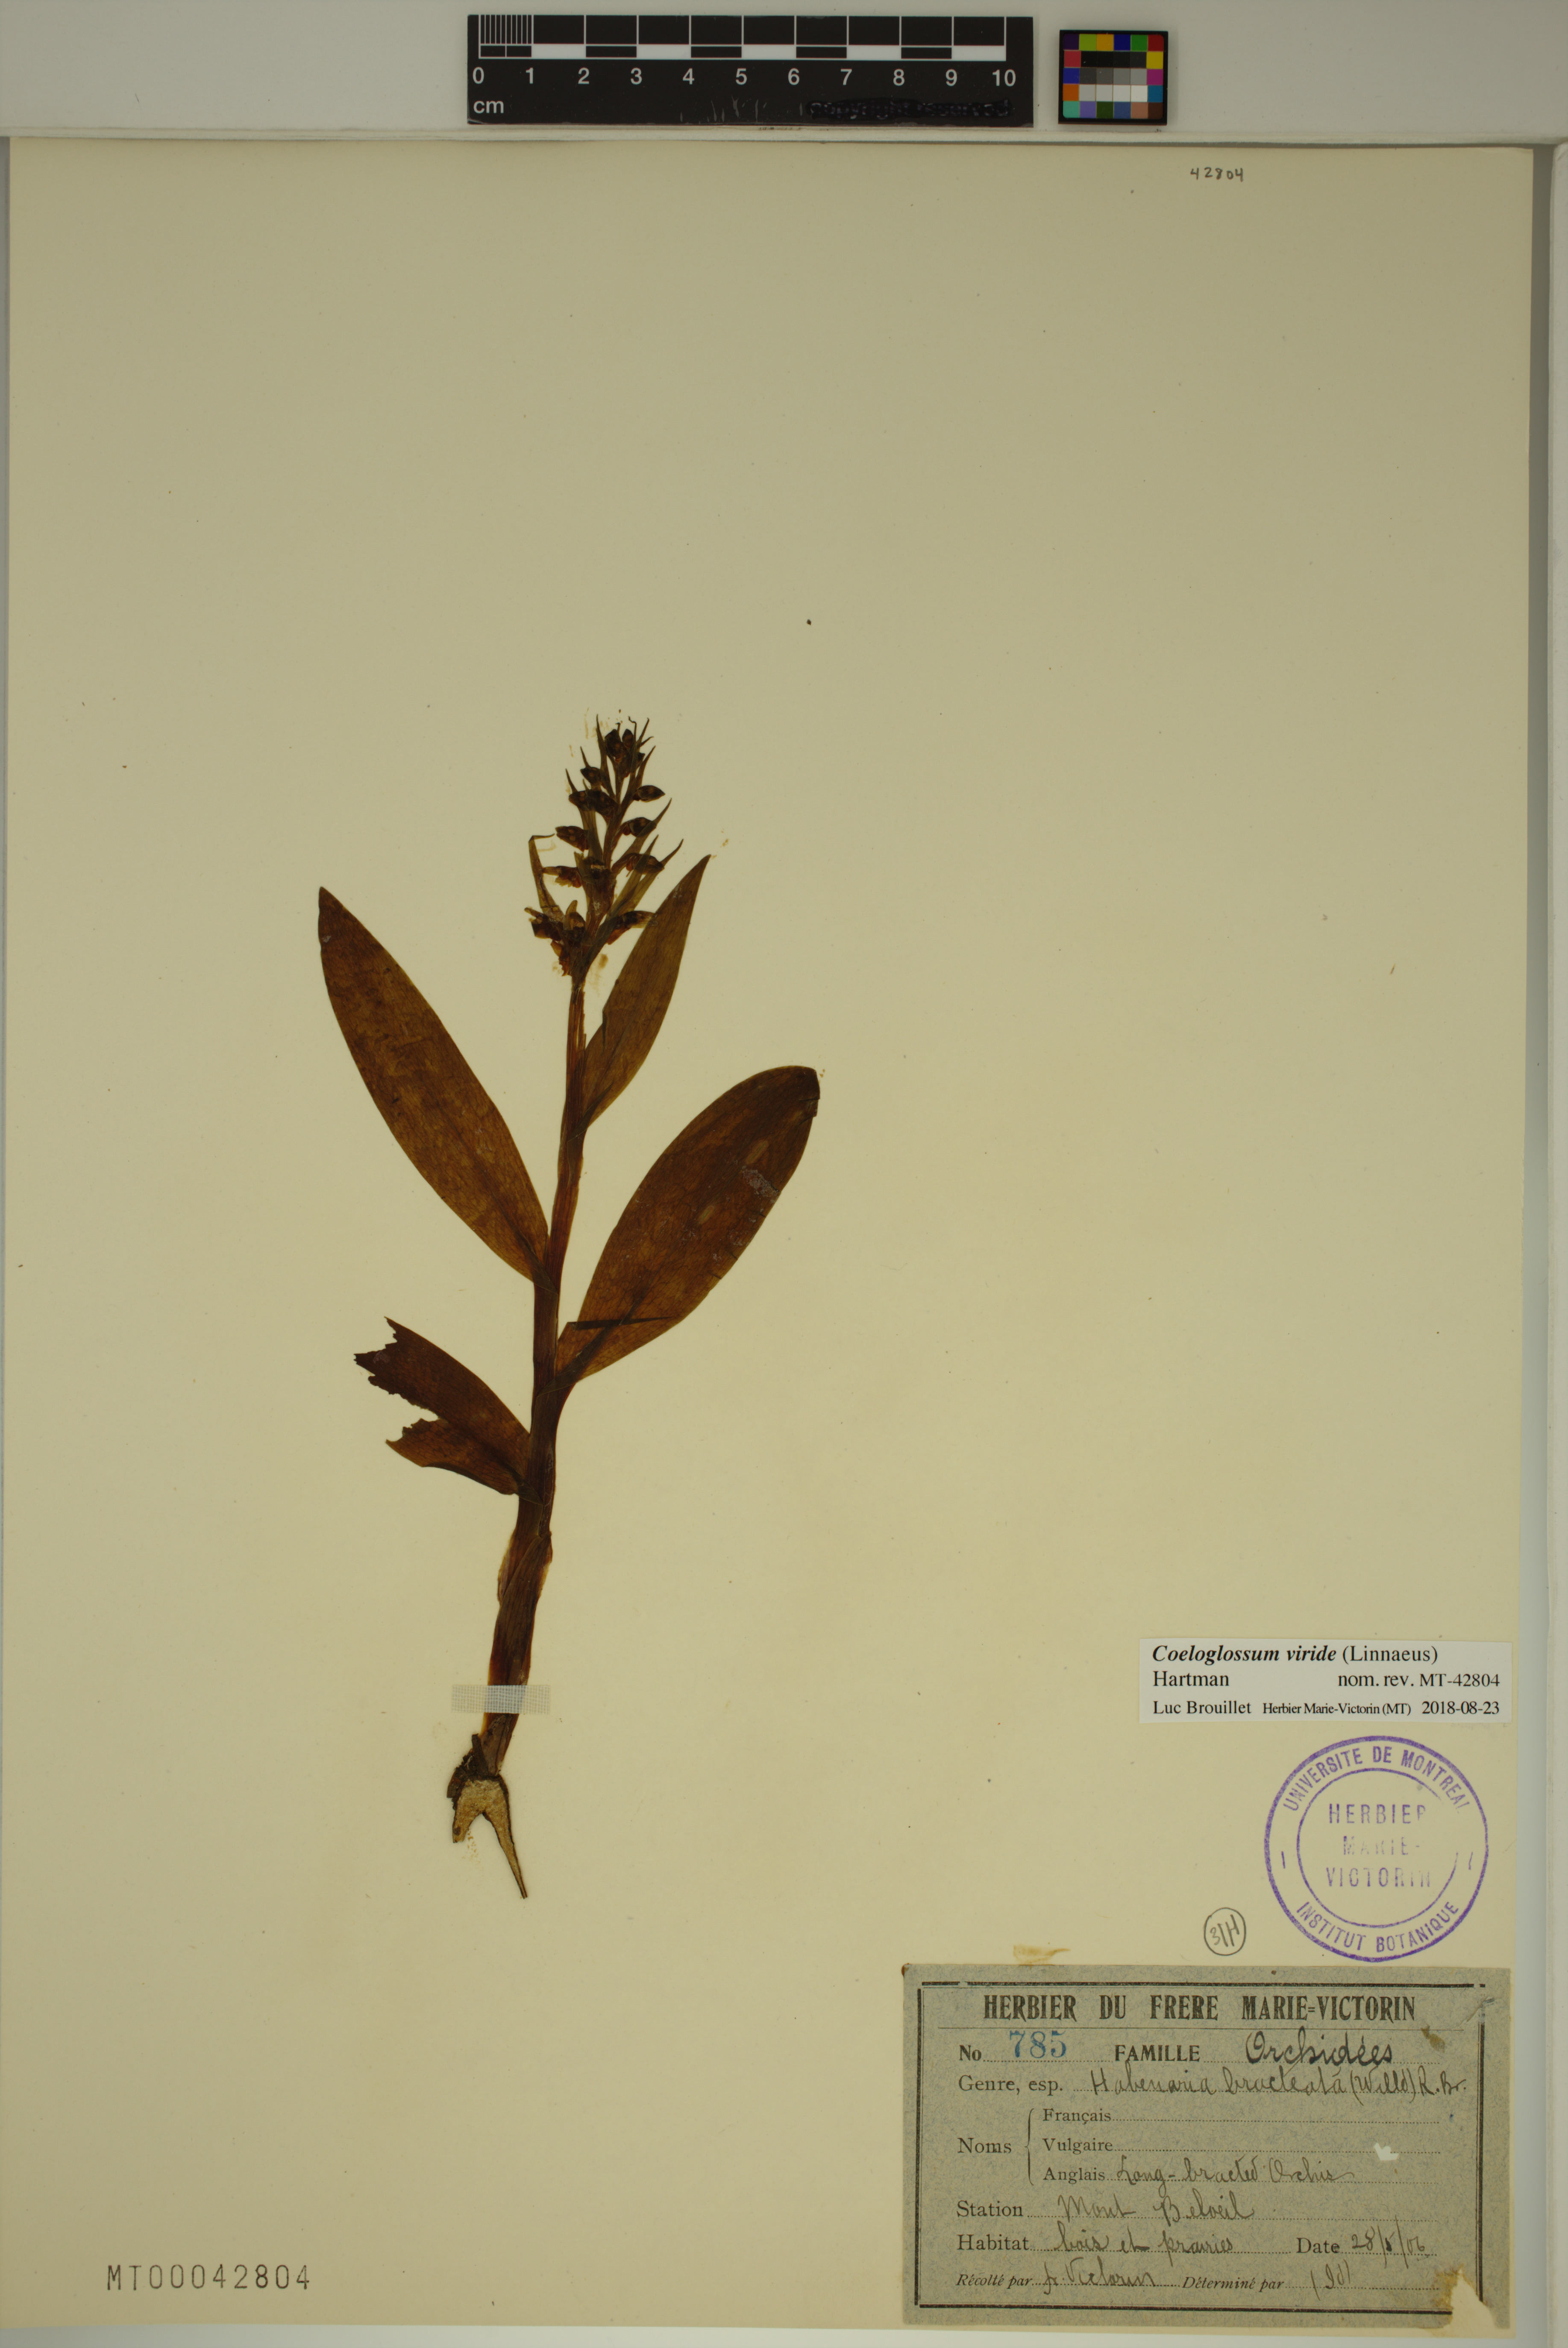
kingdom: Plantae
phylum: Tracheophyta
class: Liliopsida
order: Asparagales
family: Orchidaceae
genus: Dactylorhiza
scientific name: Dactylorhiza viridis
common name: Longbract frog orchid
